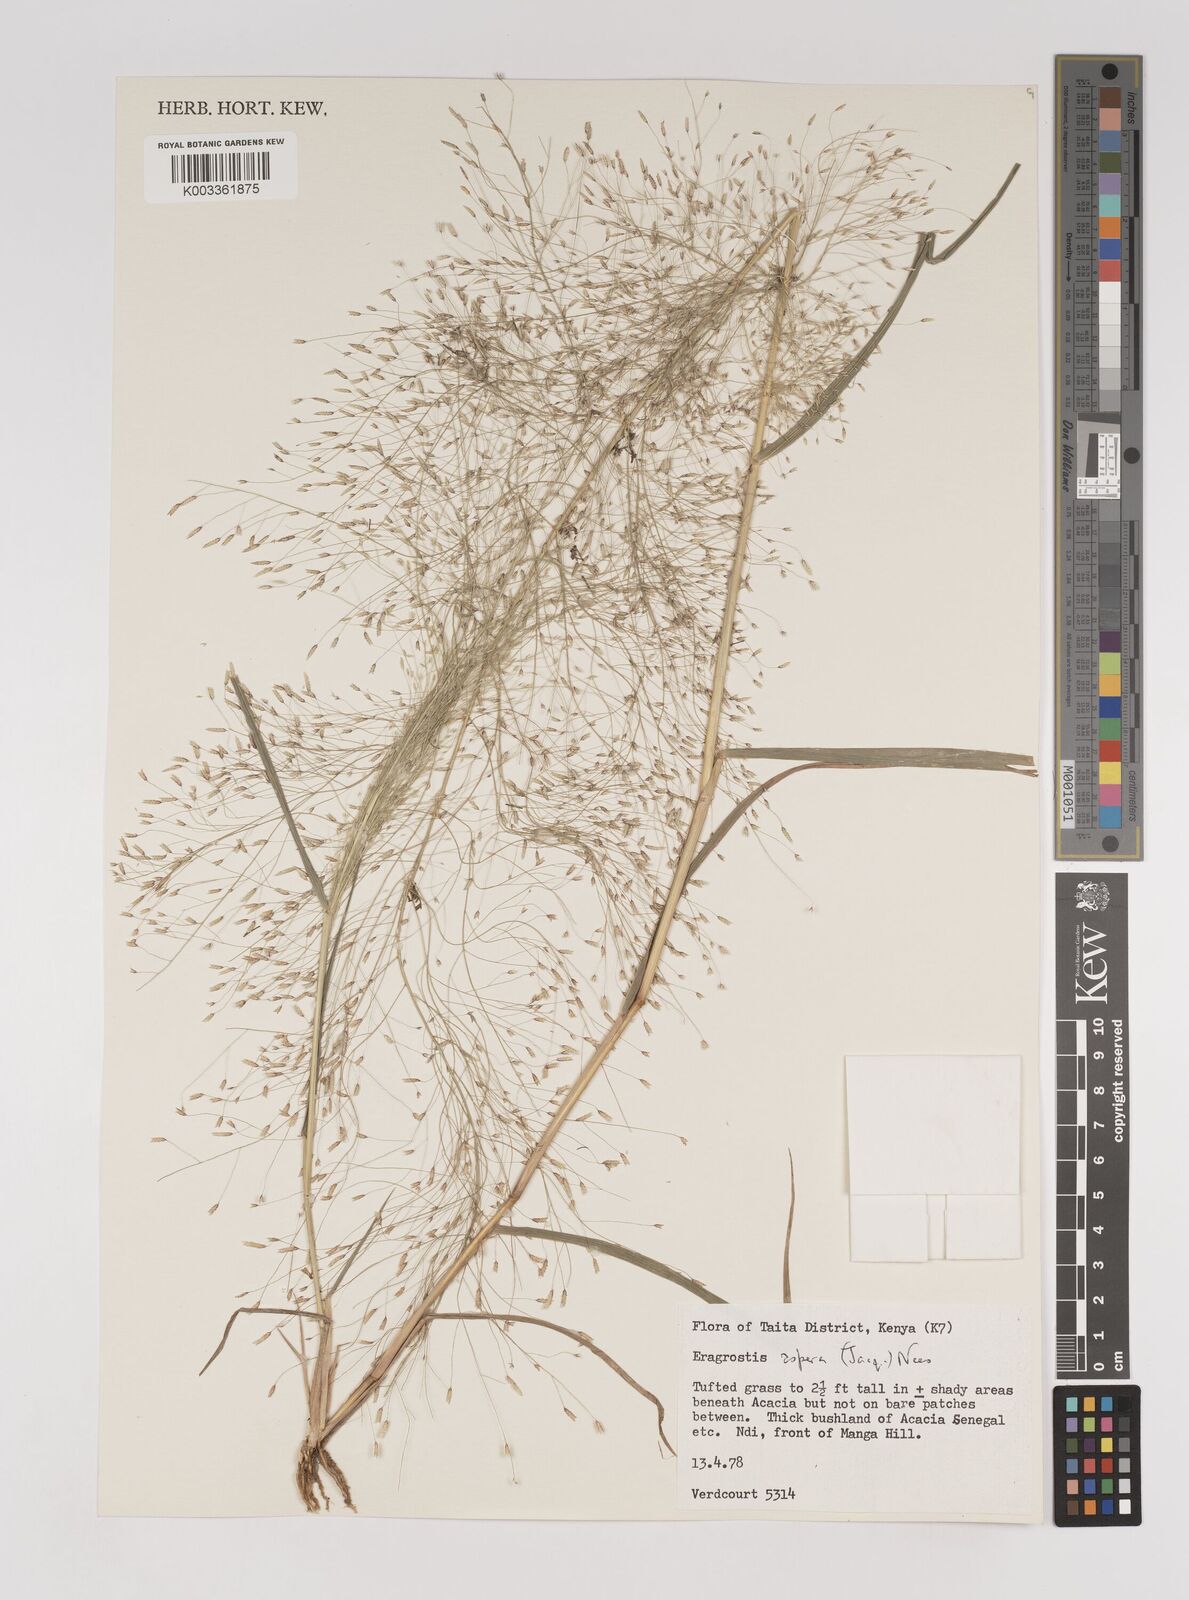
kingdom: Plantae
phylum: Tracheophyta
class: Liliopsida
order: Poales
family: Poaceae
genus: Eragrostis
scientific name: Eragrostis aspera
